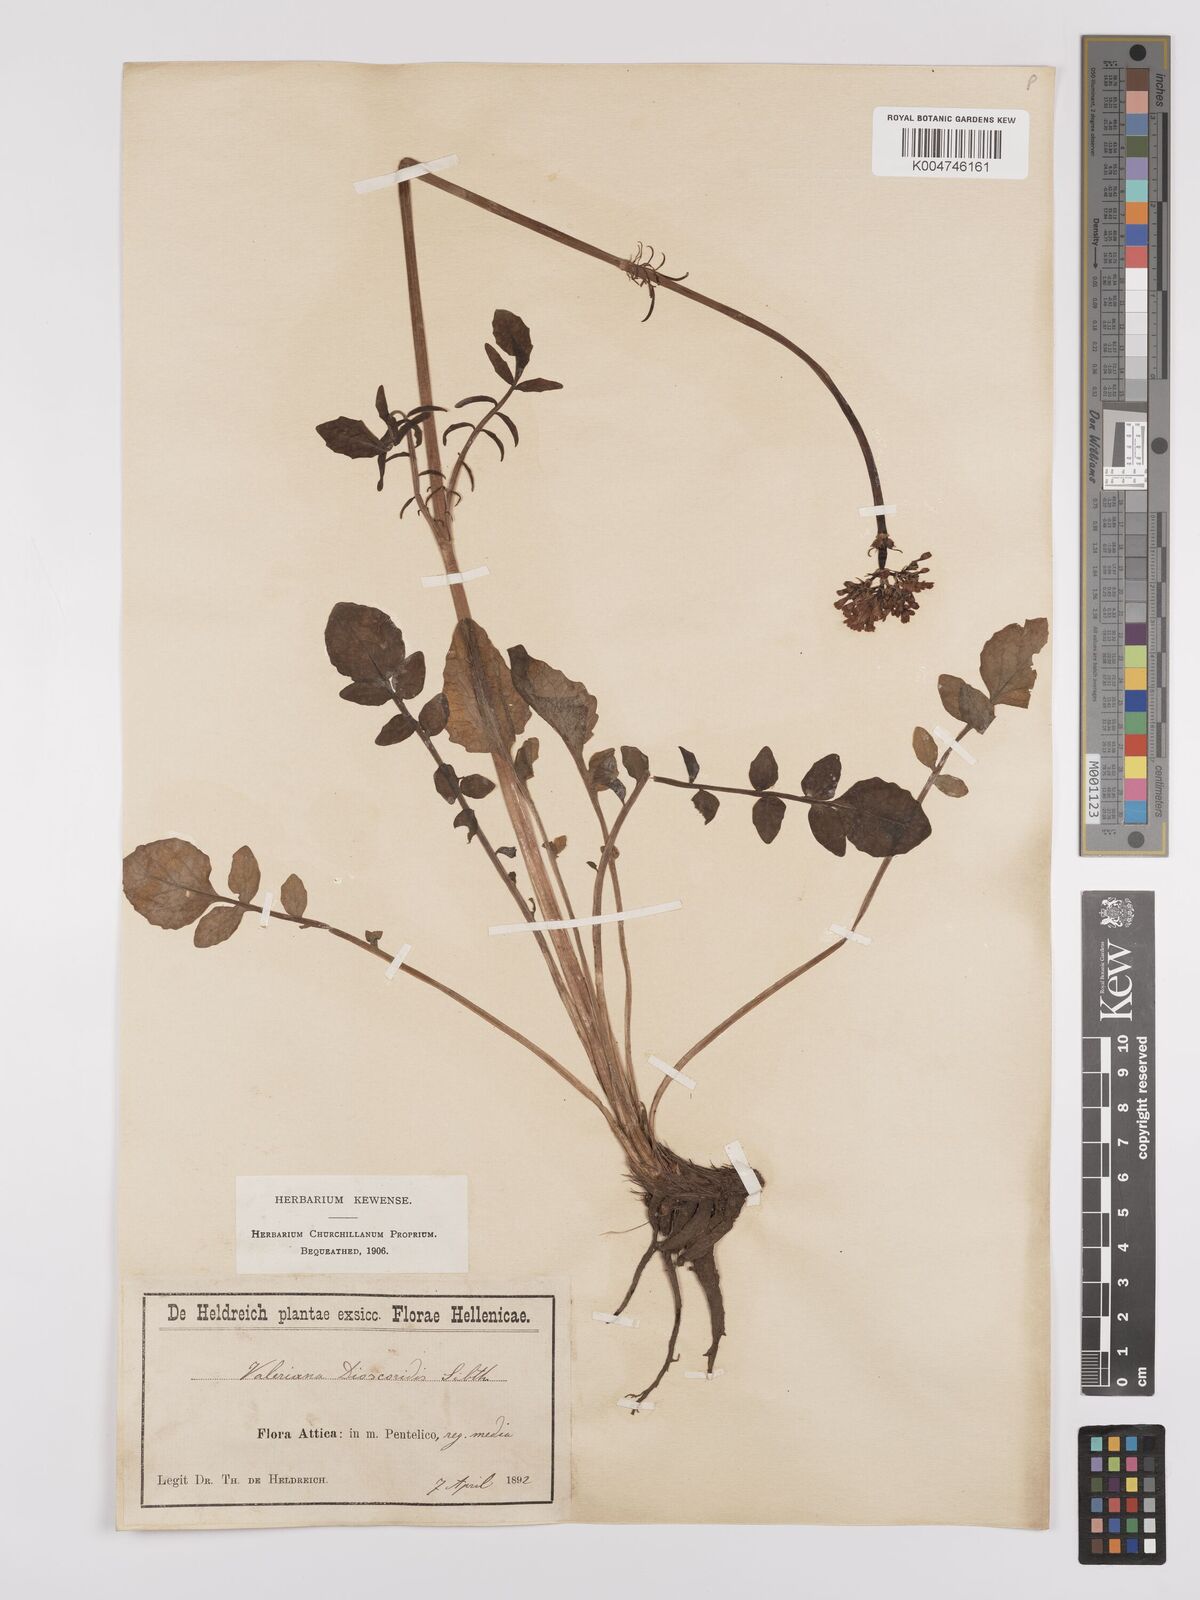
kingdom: Plantae
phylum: Tracheophyta
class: Magnoliopsida
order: Dipsacales
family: Caprifoliaceae
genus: Valeriana
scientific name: Valeriana dioscoridis
